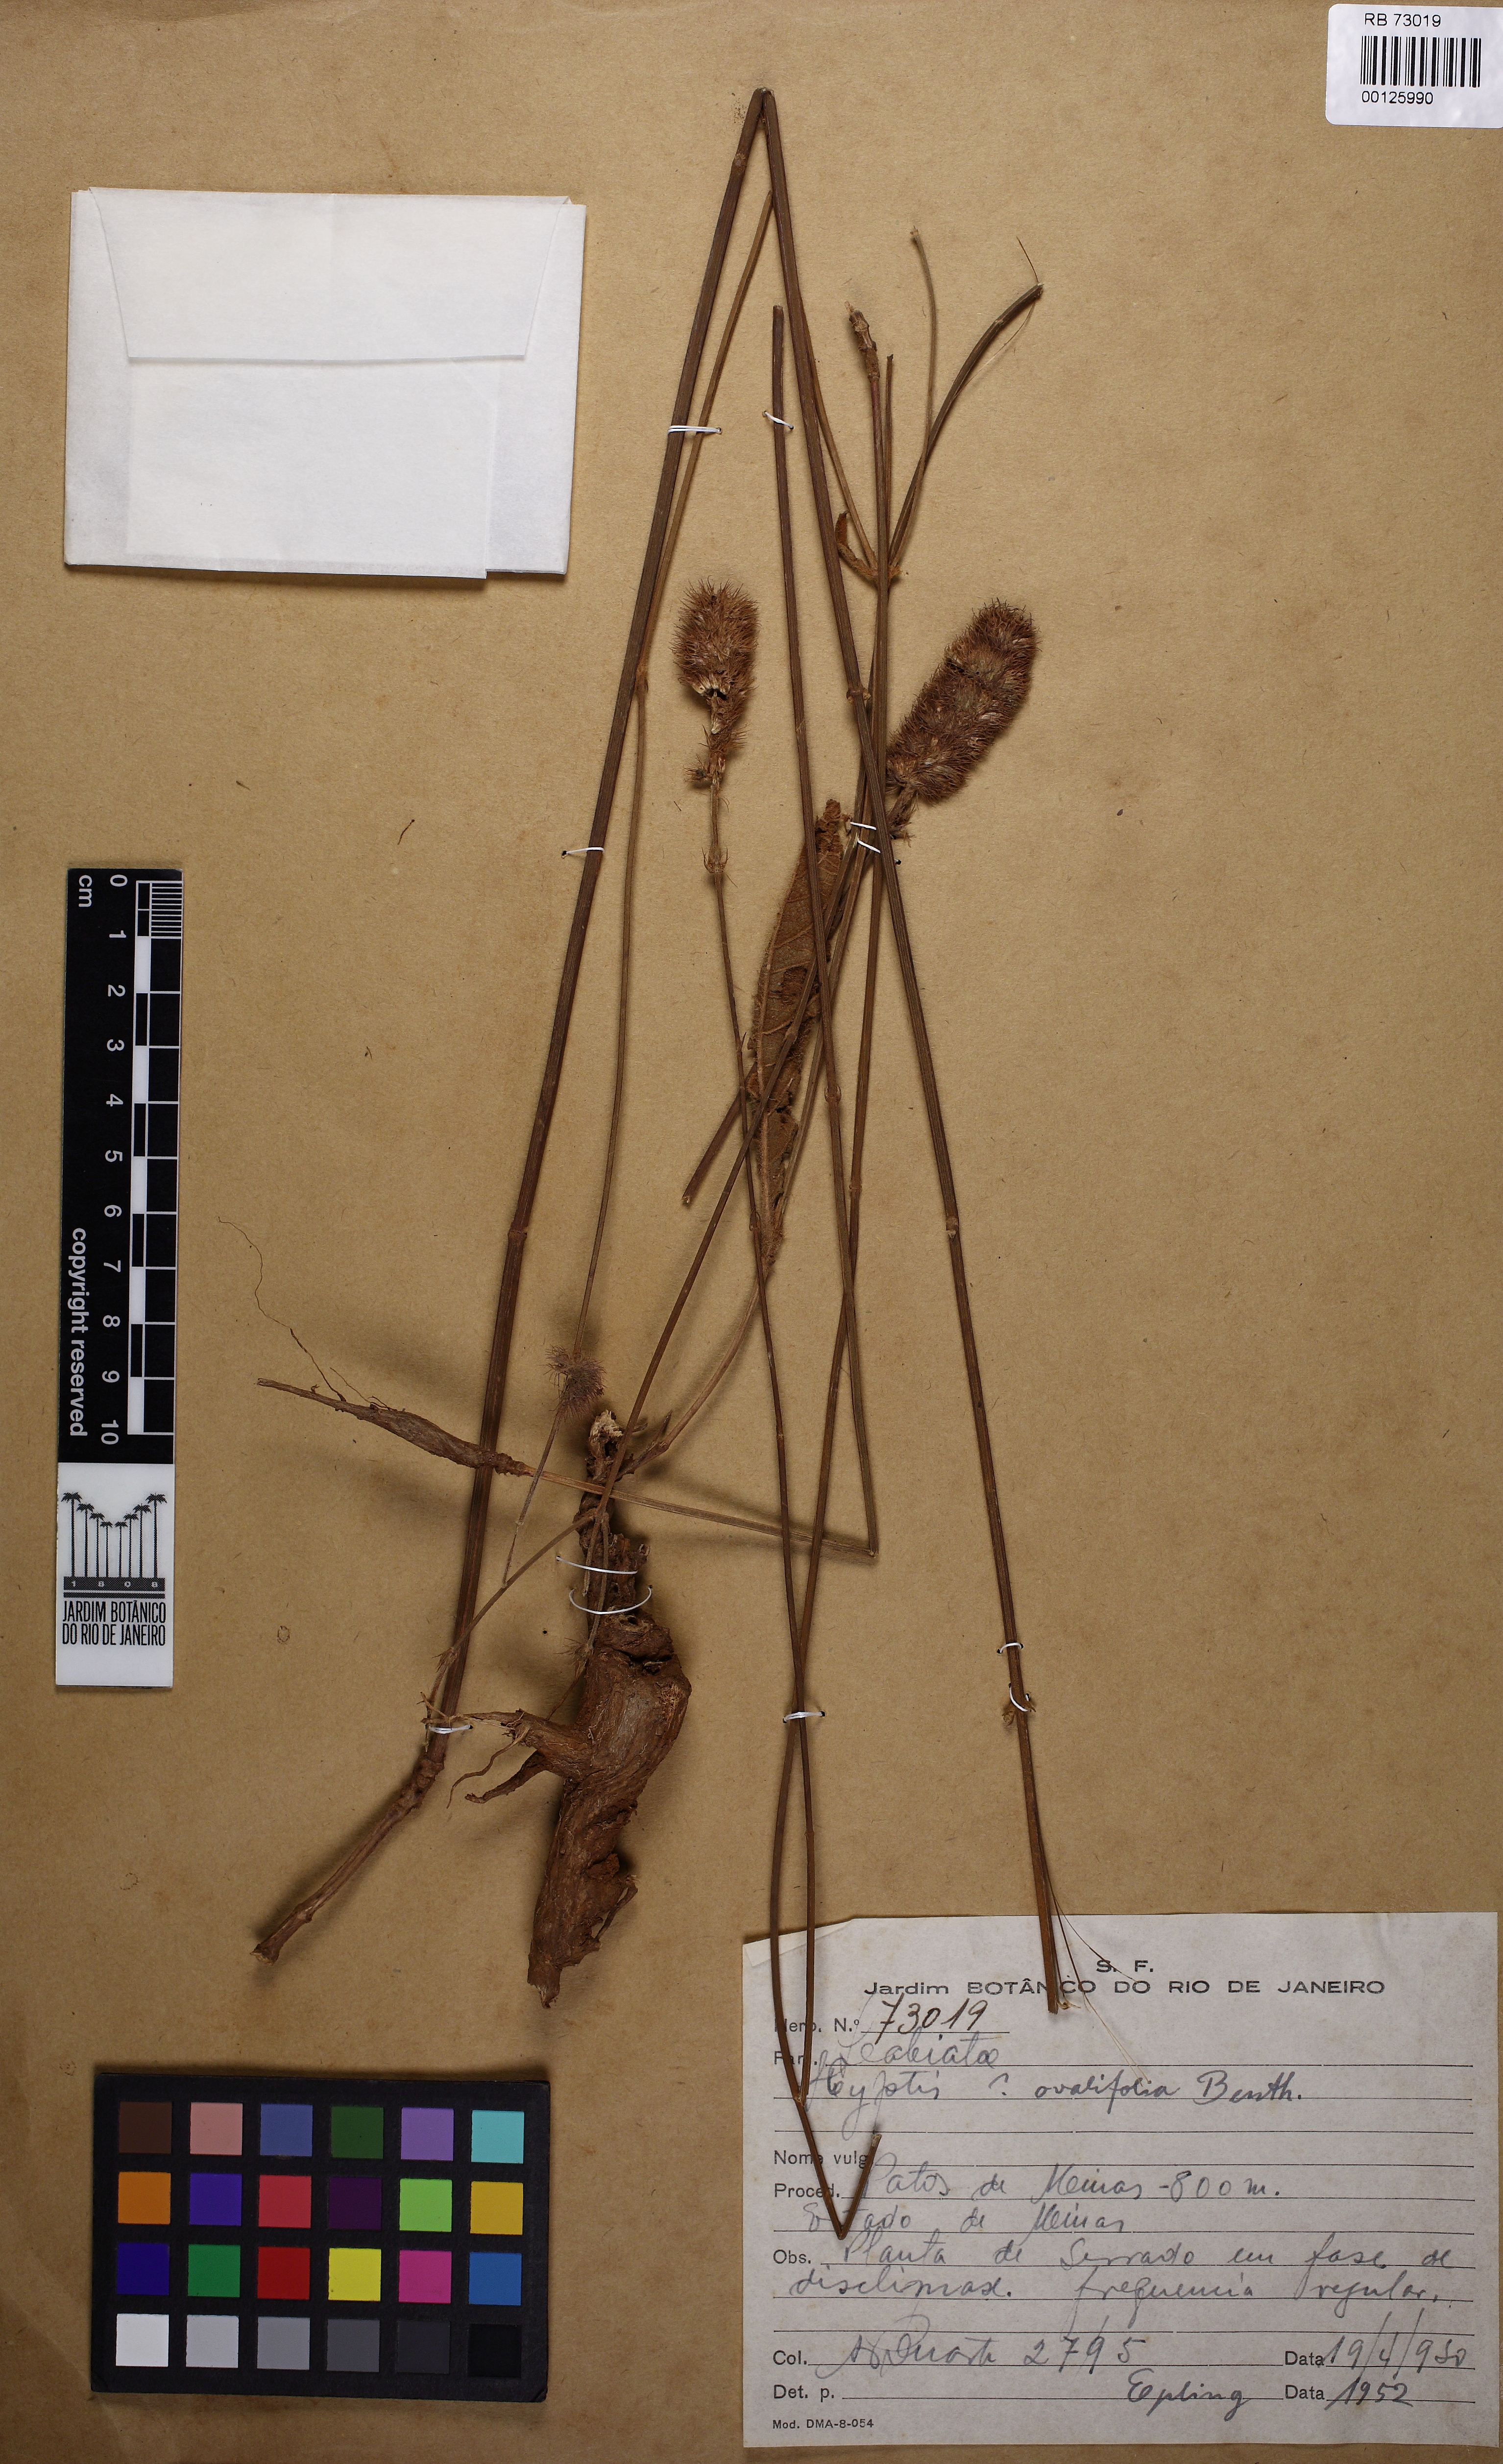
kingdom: Plantae
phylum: Tracheophyta
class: Magnoliopsida
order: Lamiales
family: Lamiaceae
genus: Hyptis
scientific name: Hyptis ovalifolia
